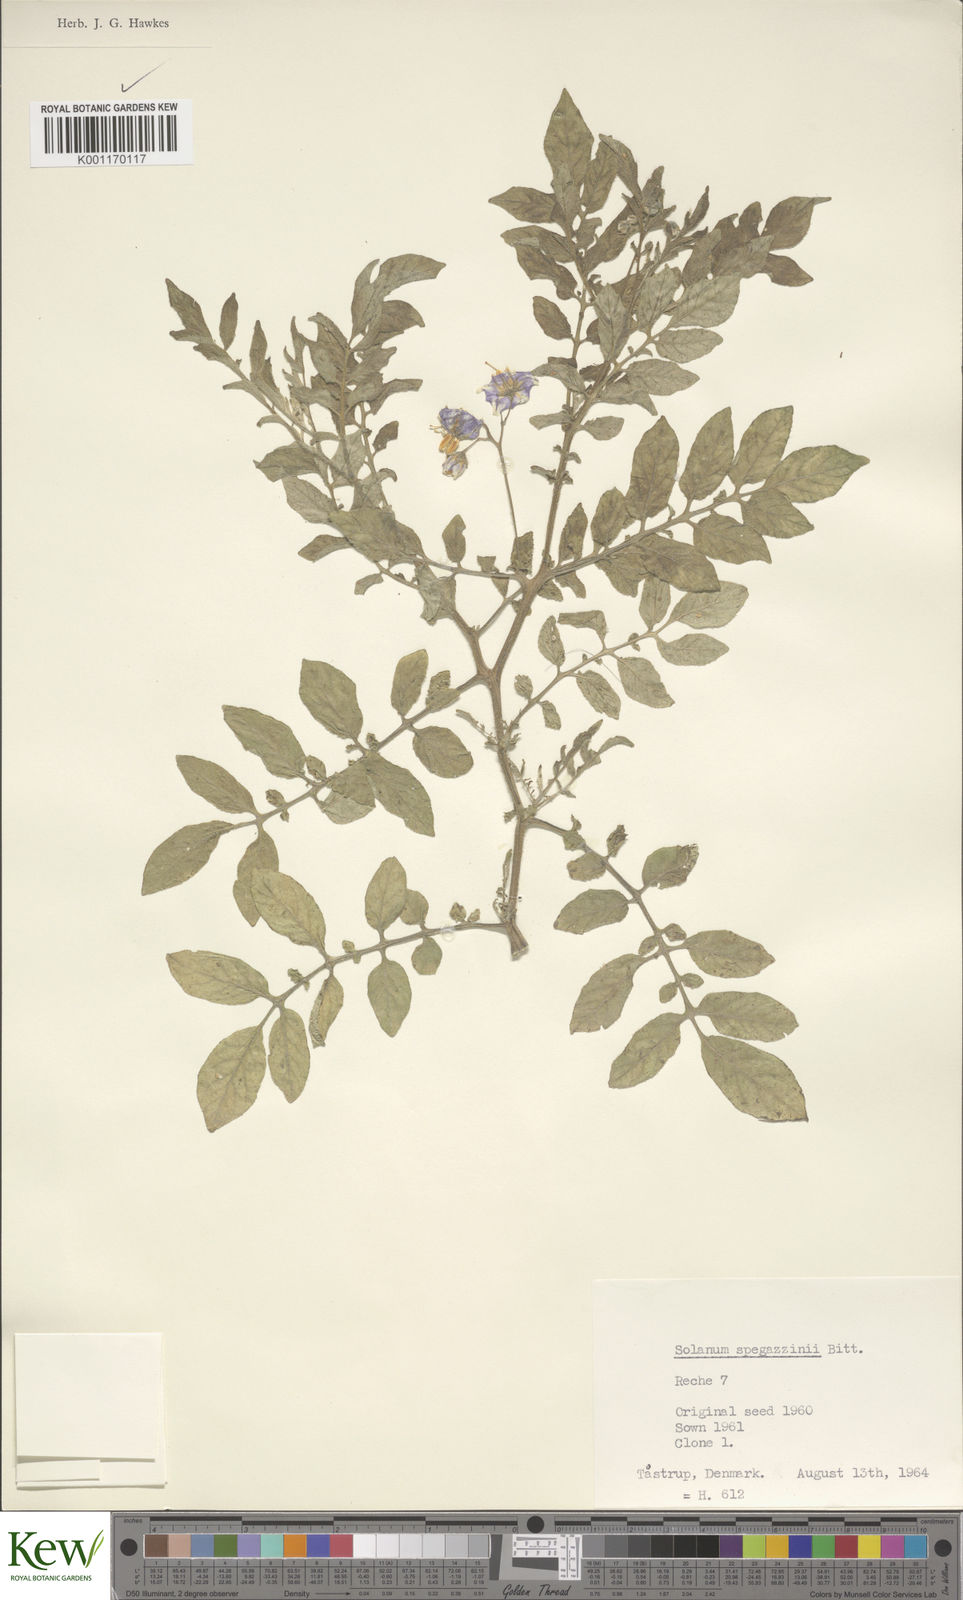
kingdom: Plantae
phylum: Tracheophyta
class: Magnoliopsida
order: Solanales
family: Solanaceae
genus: Solanum
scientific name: Solanum brevicaule
